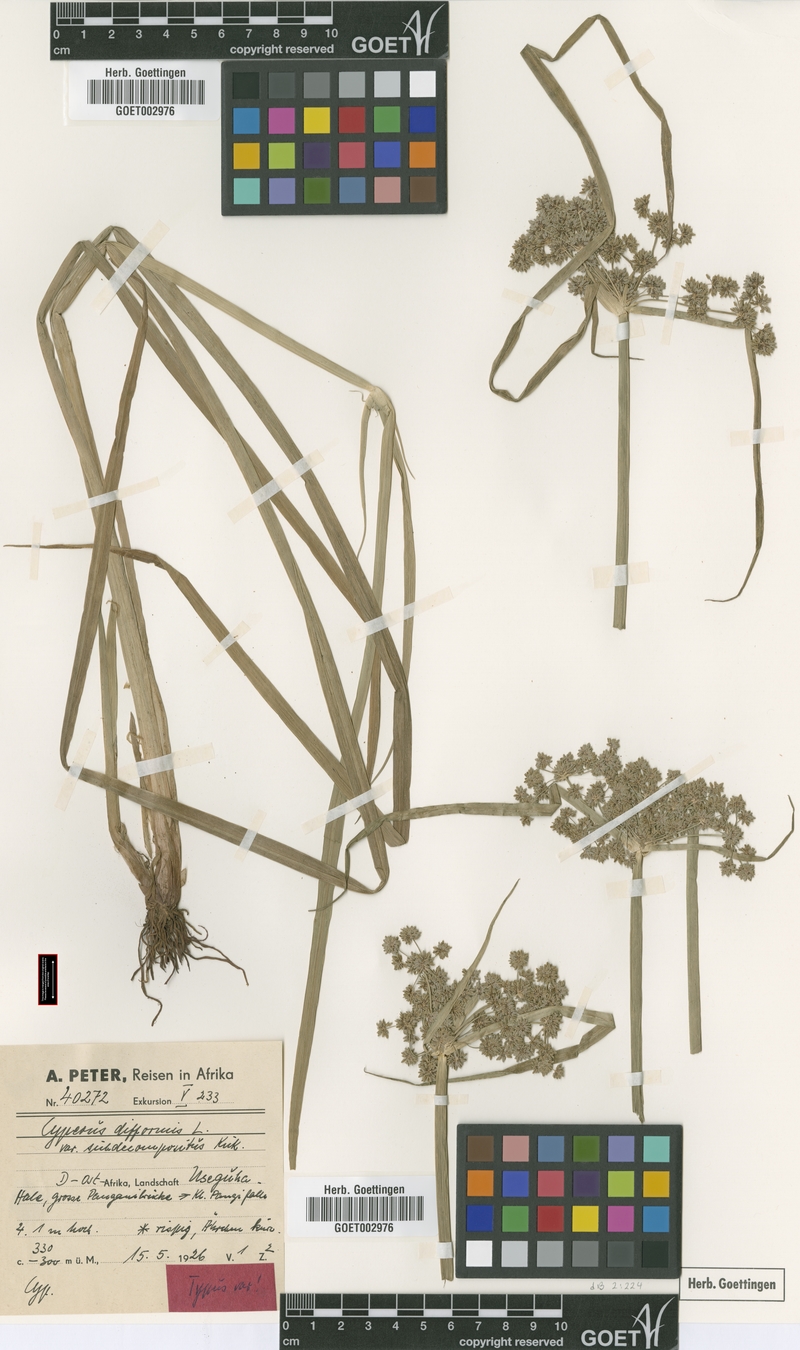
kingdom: Plantae
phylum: Tracheophyta
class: Liliopsida
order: Poales
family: Cyperaceae
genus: Cyperus
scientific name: Cyperus difformis
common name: Variable flatsedge
